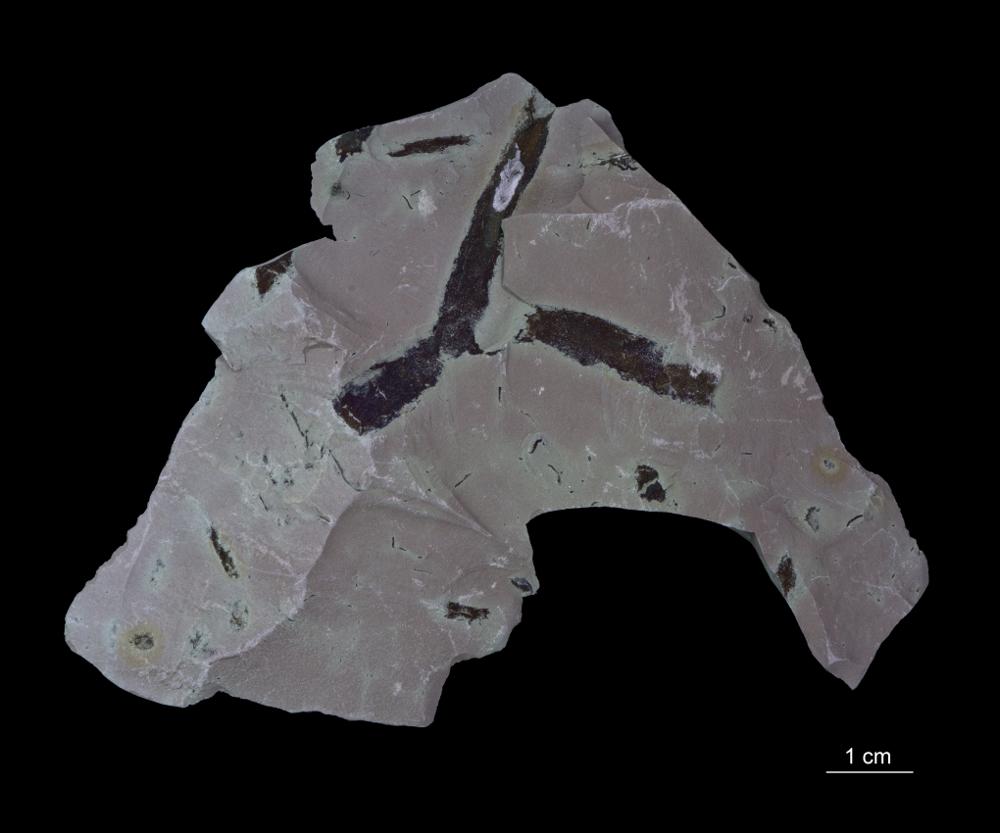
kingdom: Chromista
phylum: Foraminifera
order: Astrorhizida
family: Hyperamminidae
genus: Platysolenites
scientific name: Platysolenites
